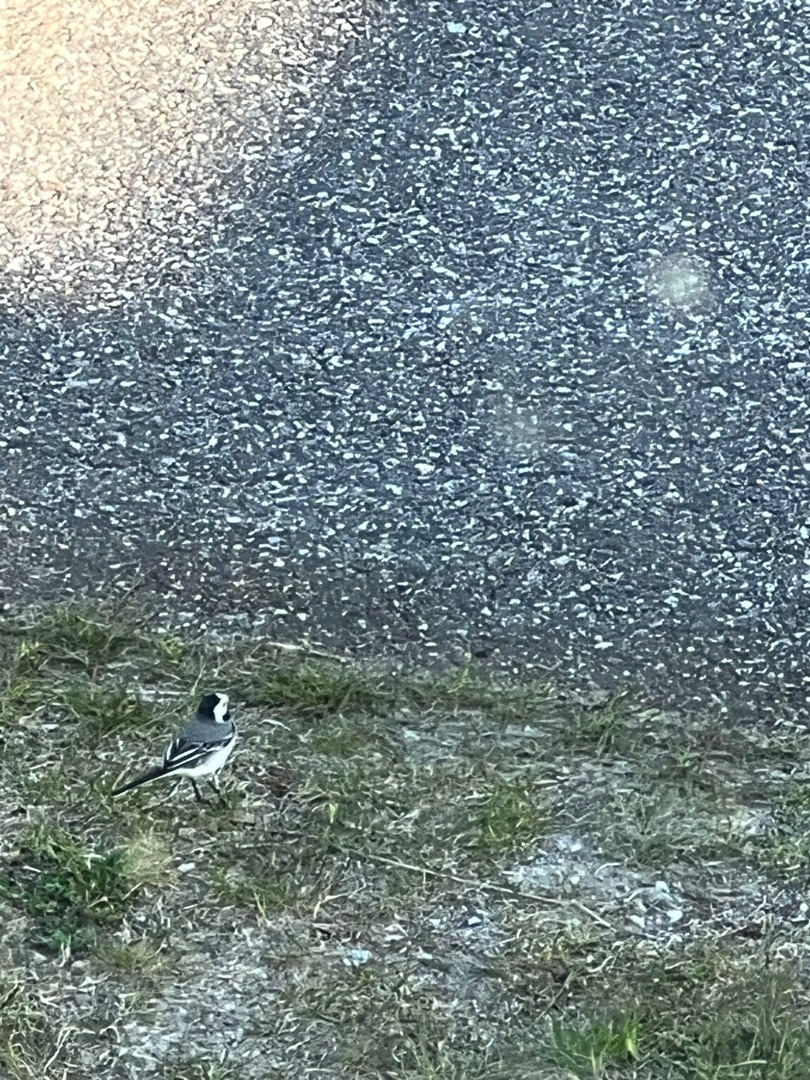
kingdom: Animalia
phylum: Chordata
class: Aves
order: Passeriformes
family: Motacillidae
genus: Motacilla
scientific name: Motacilla alba
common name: Hvid vipstjert
